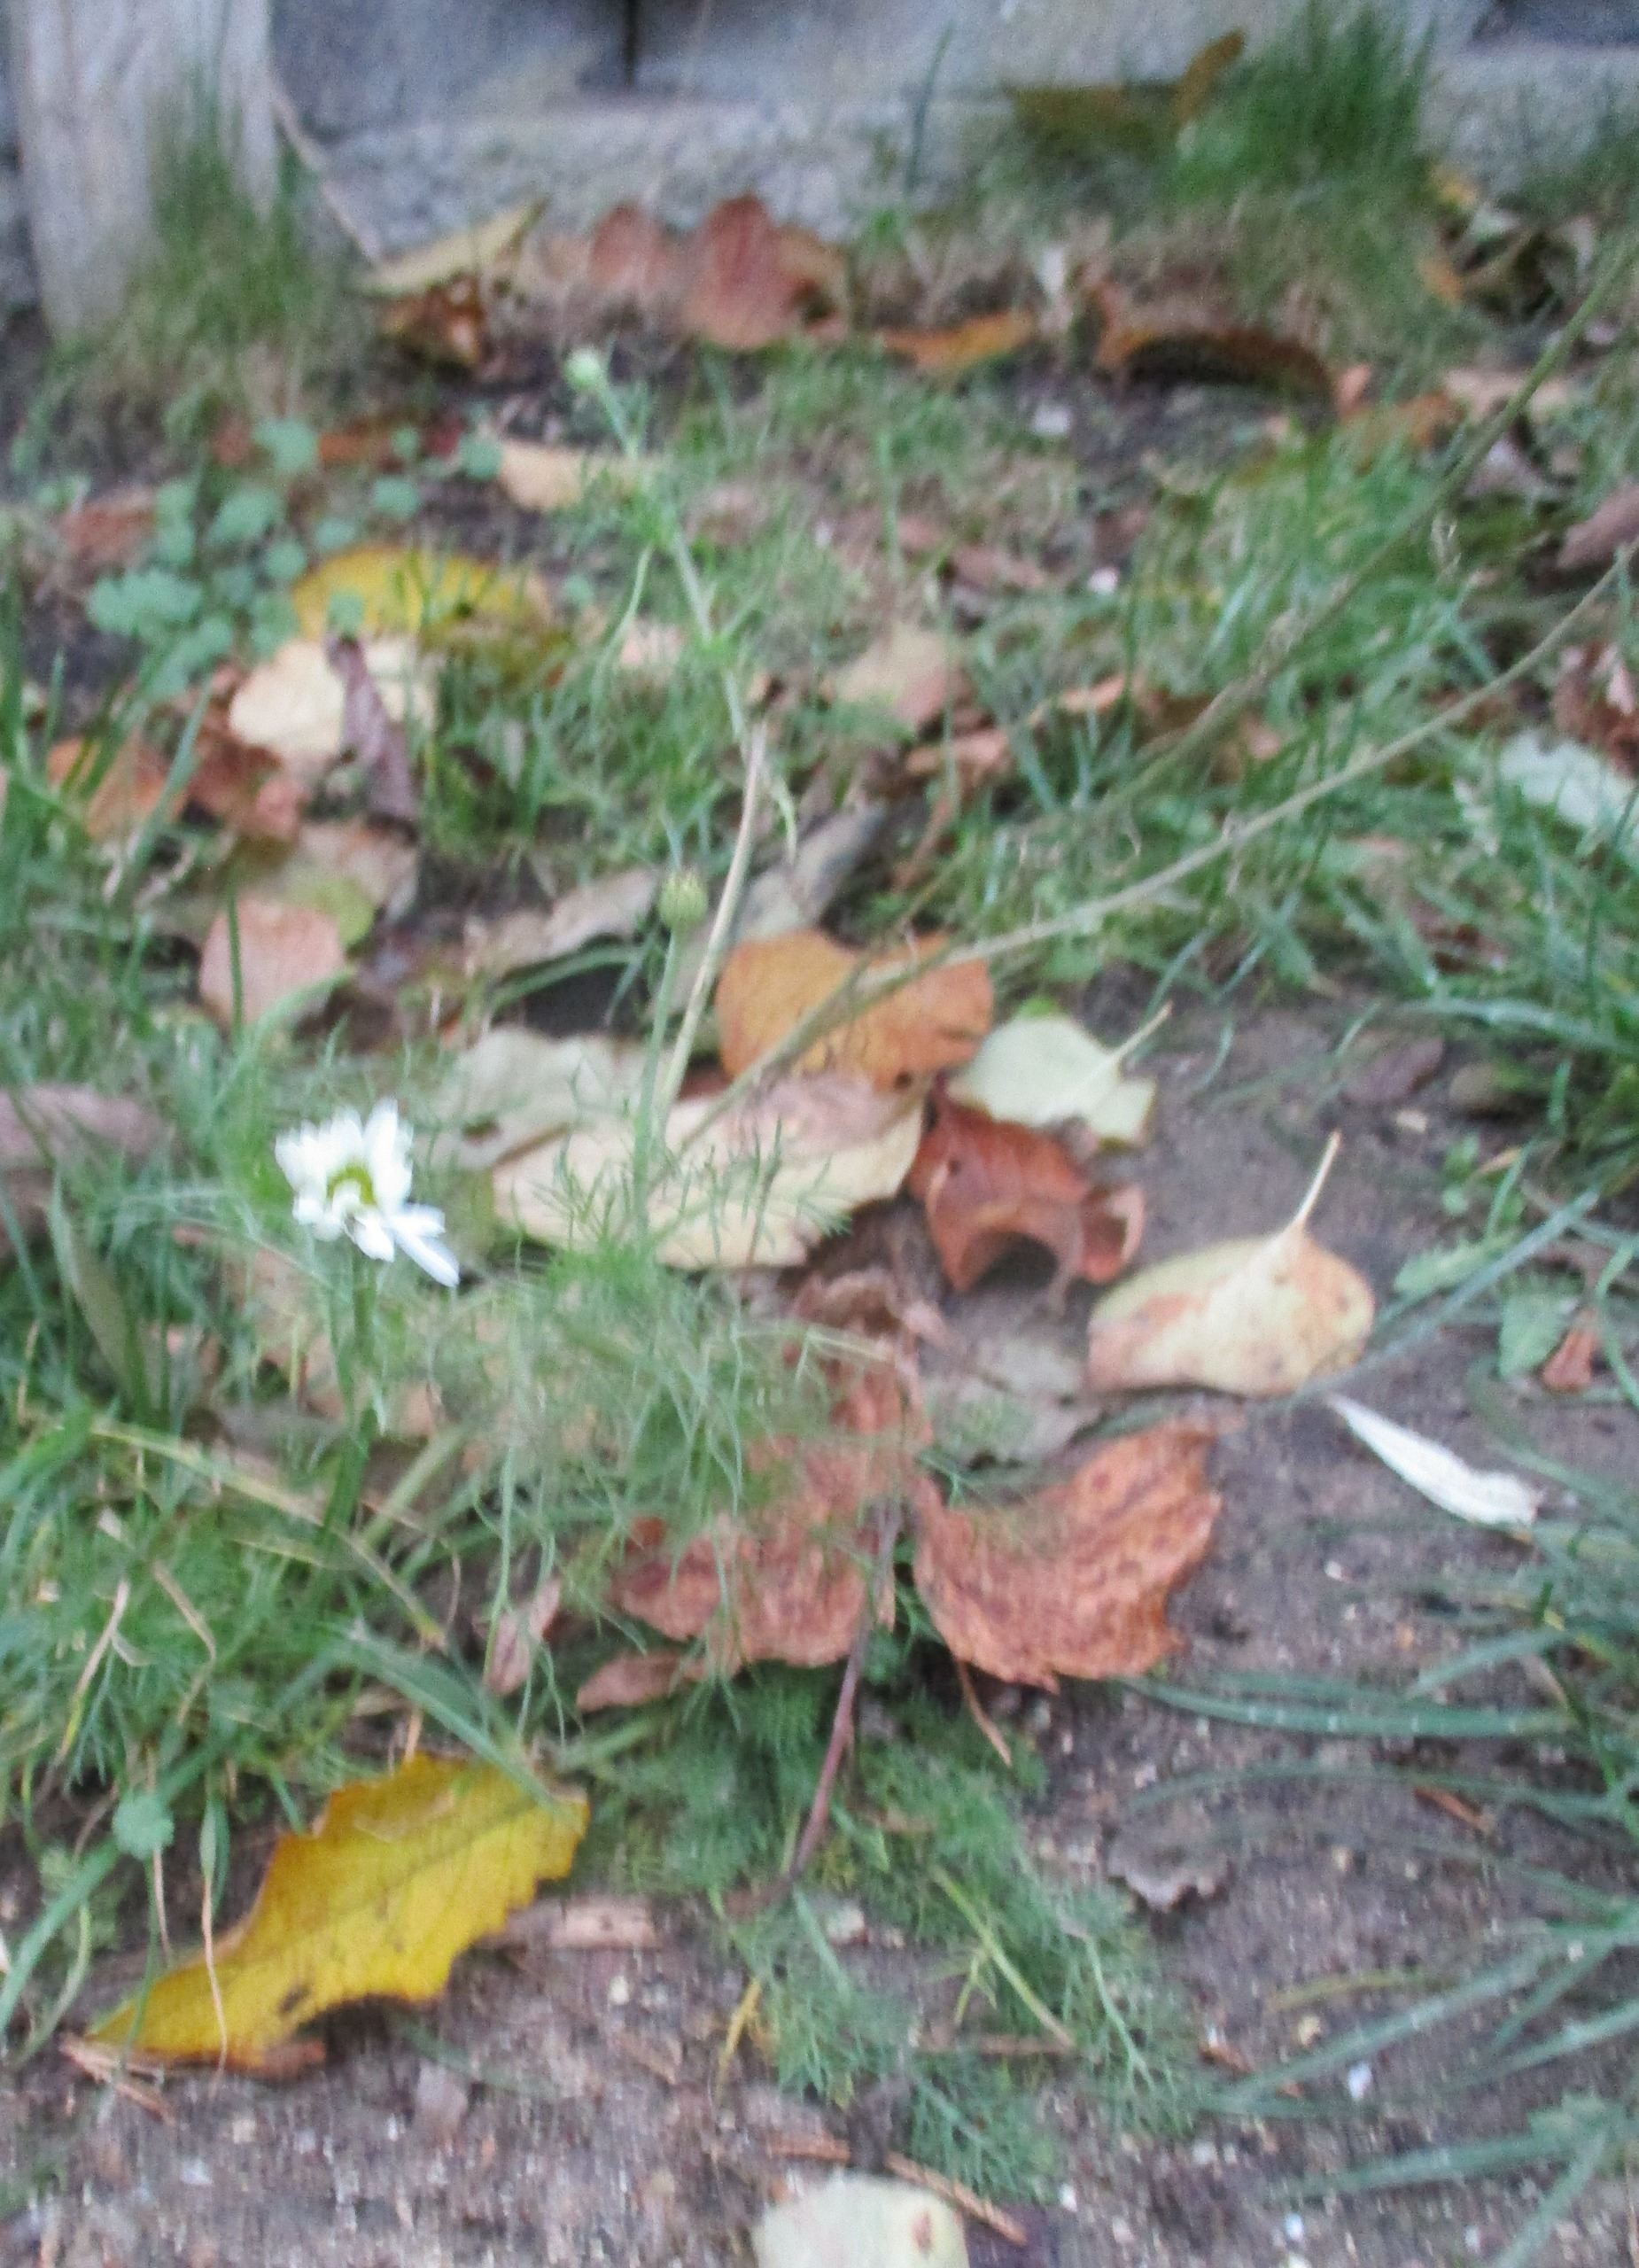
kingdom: Plantae
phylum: Tracheophyta
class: Magnoliopsida
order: Asterales
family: Asteraceae
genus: Tripleurospermum
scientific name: Tripleurospermum inodorum
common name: Lugtløs kamille
